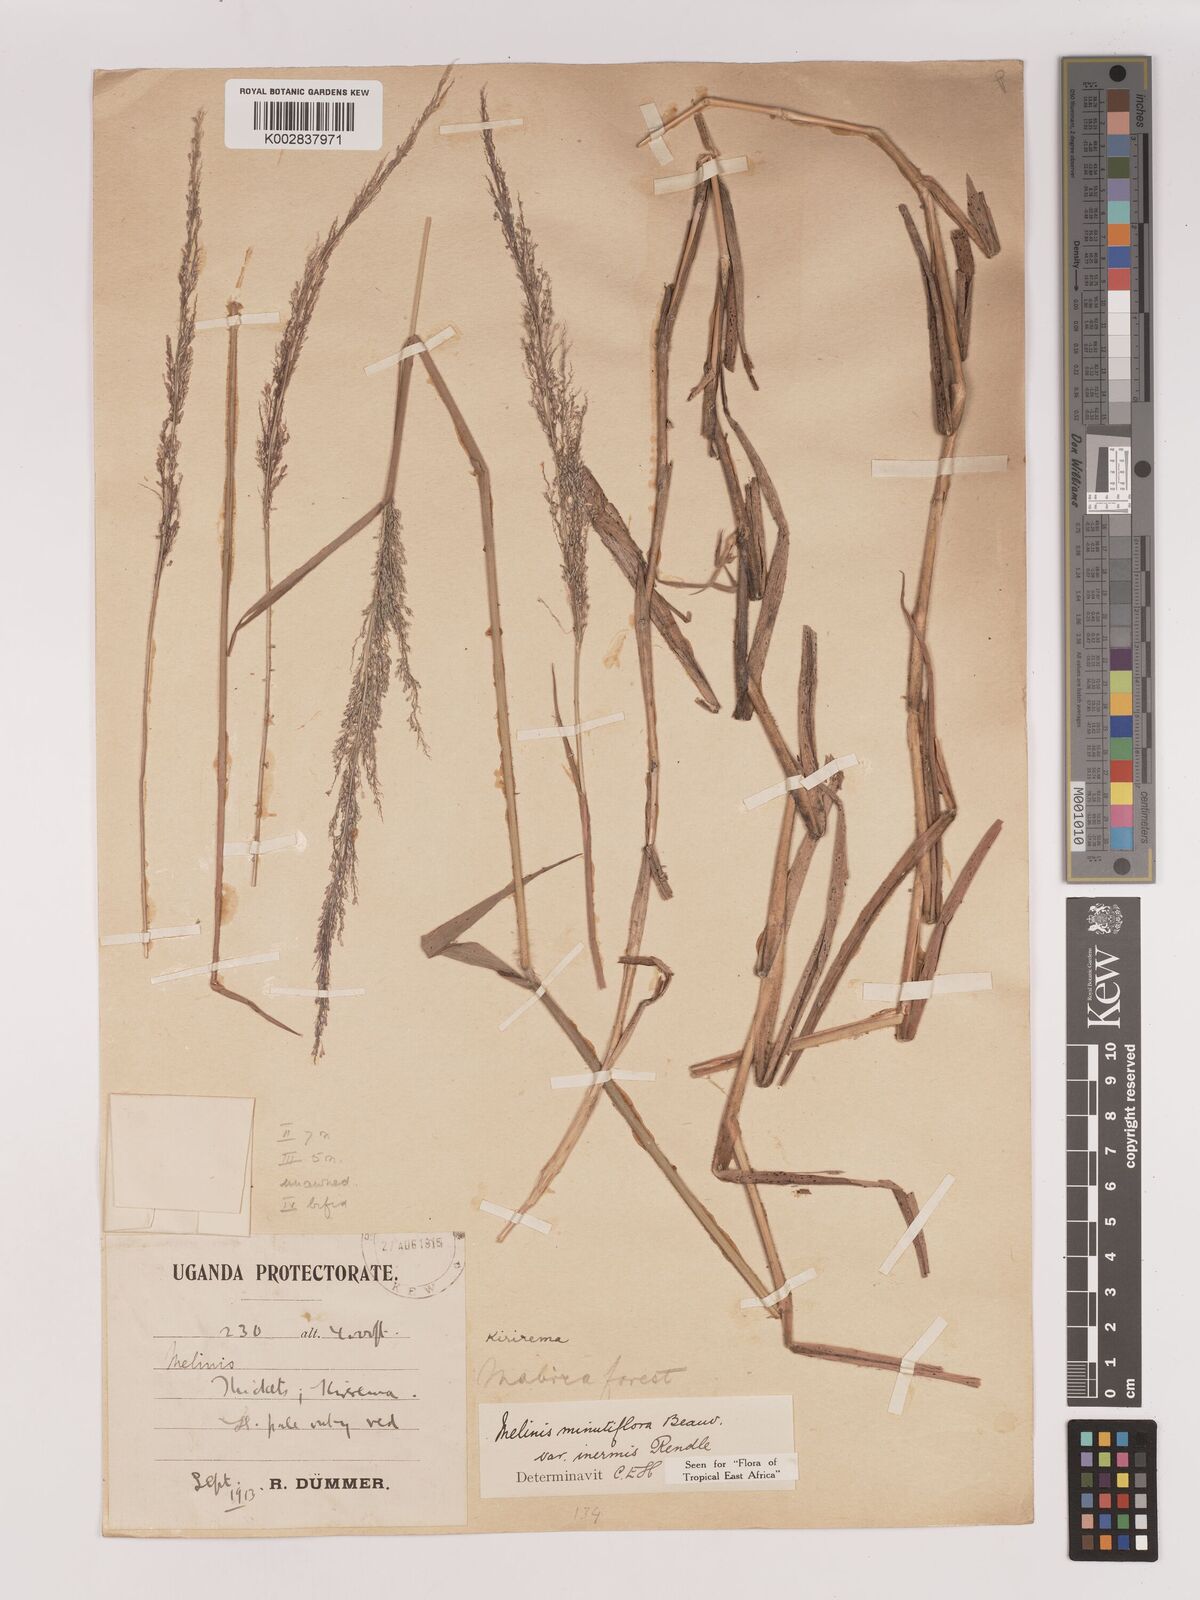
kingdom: Plantae
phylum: Tracheophyta
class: Liliopsida
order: Poales
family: Poaceae
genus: Melinis
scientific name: Melinis minutiflora
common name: Molassesgrass
